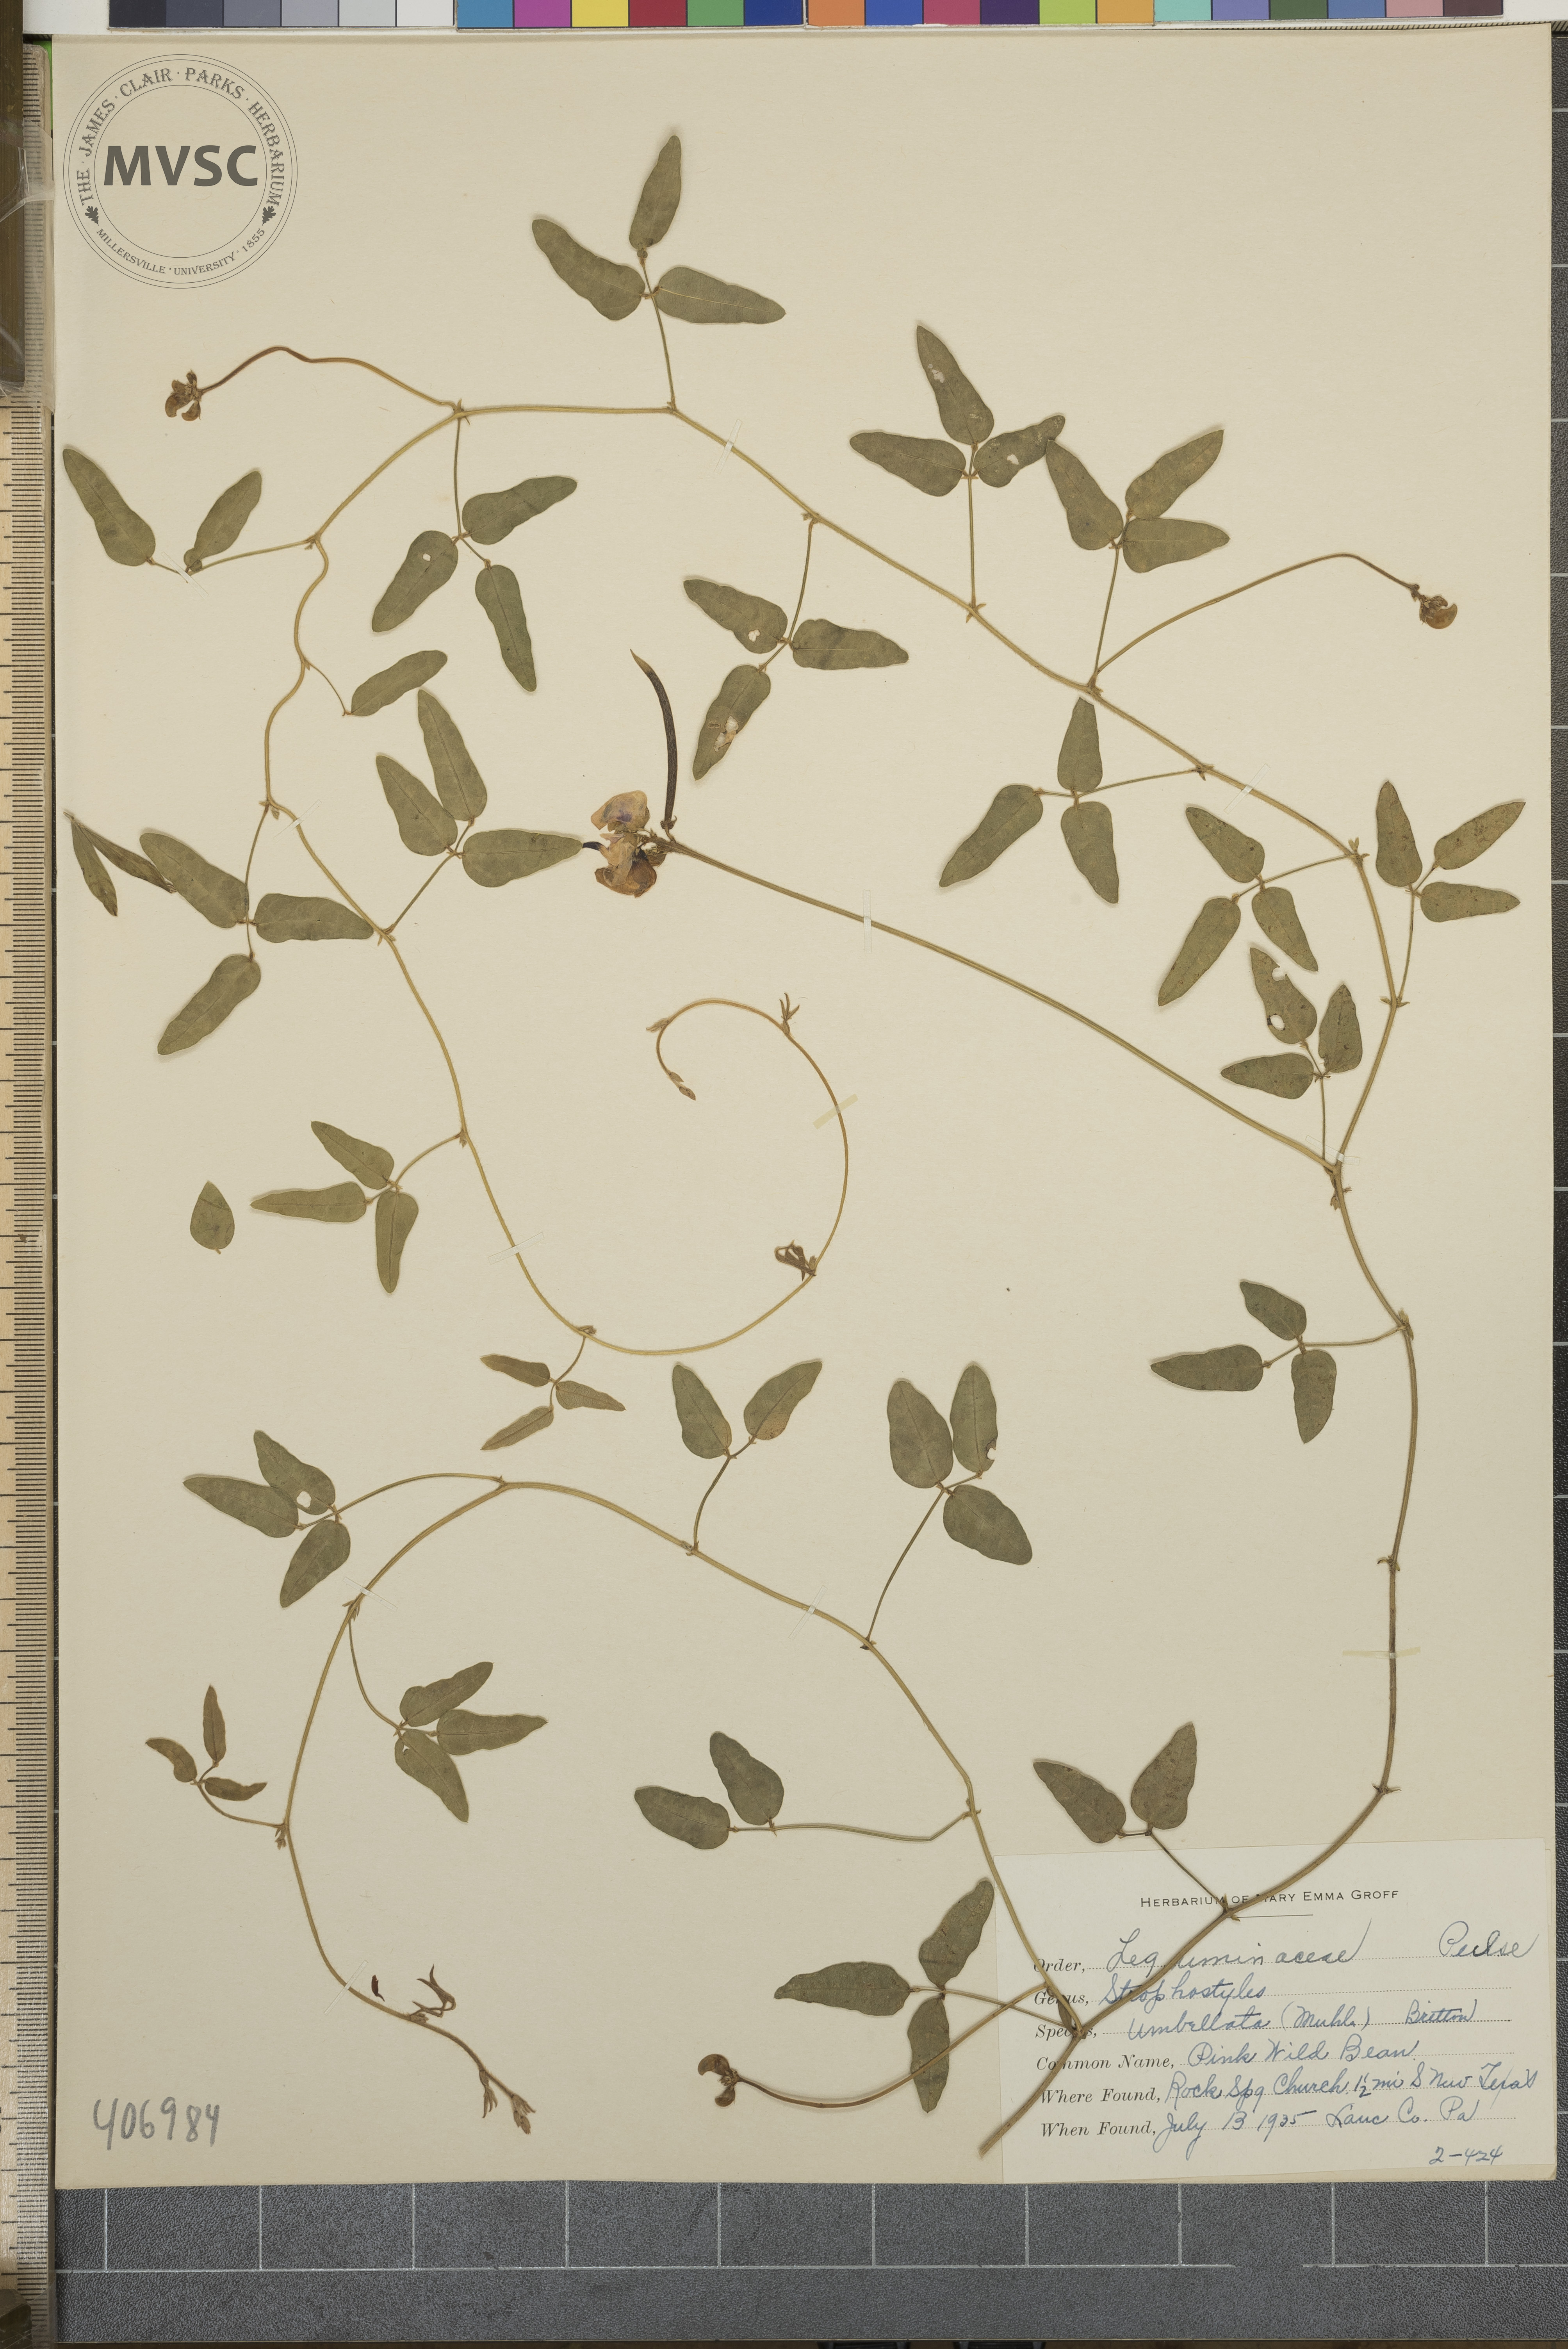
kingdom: Plantae
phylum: Tracheophyta
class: Magnoliopsida
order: Fabales
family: Fabaceae
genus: Strophostyles
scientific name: Strophostyles umbellata
